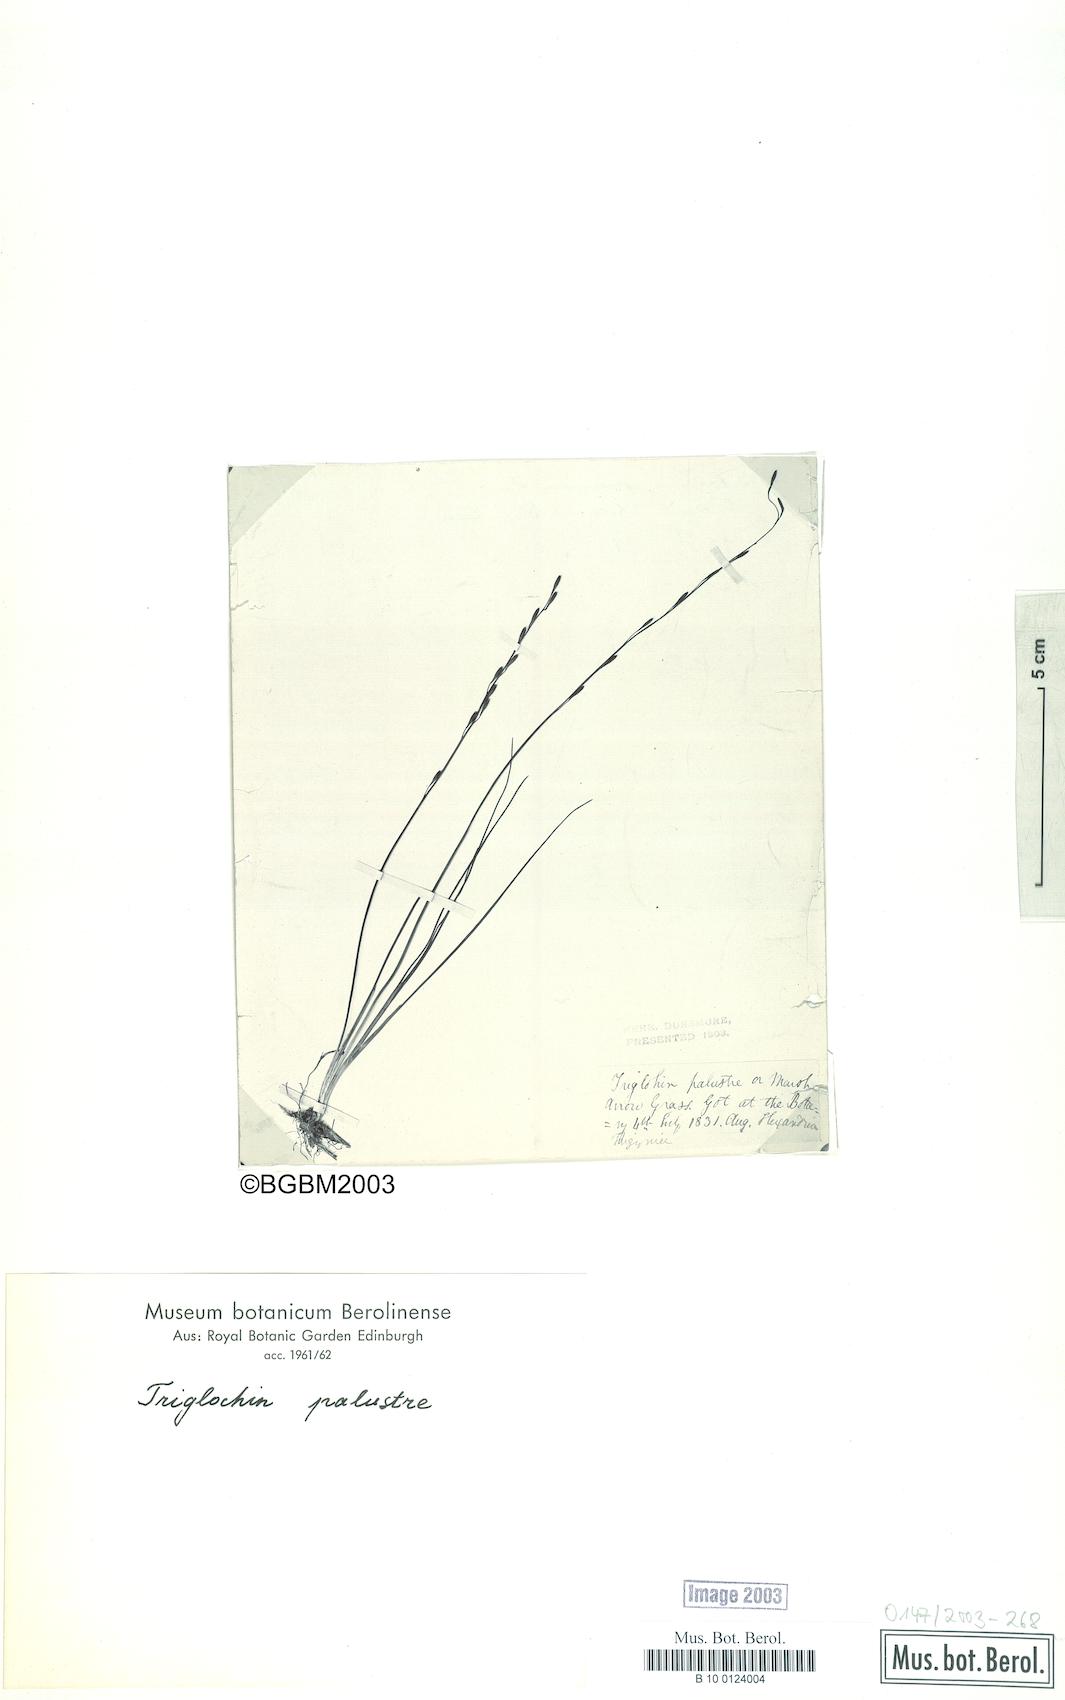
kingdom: Plantae
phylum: Tracheophyta
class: Liliopsida
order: Alismatales
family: Juncaginaceae
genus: Triglochin
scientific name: Triglochin palustris
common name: Marsh arrowgrass
